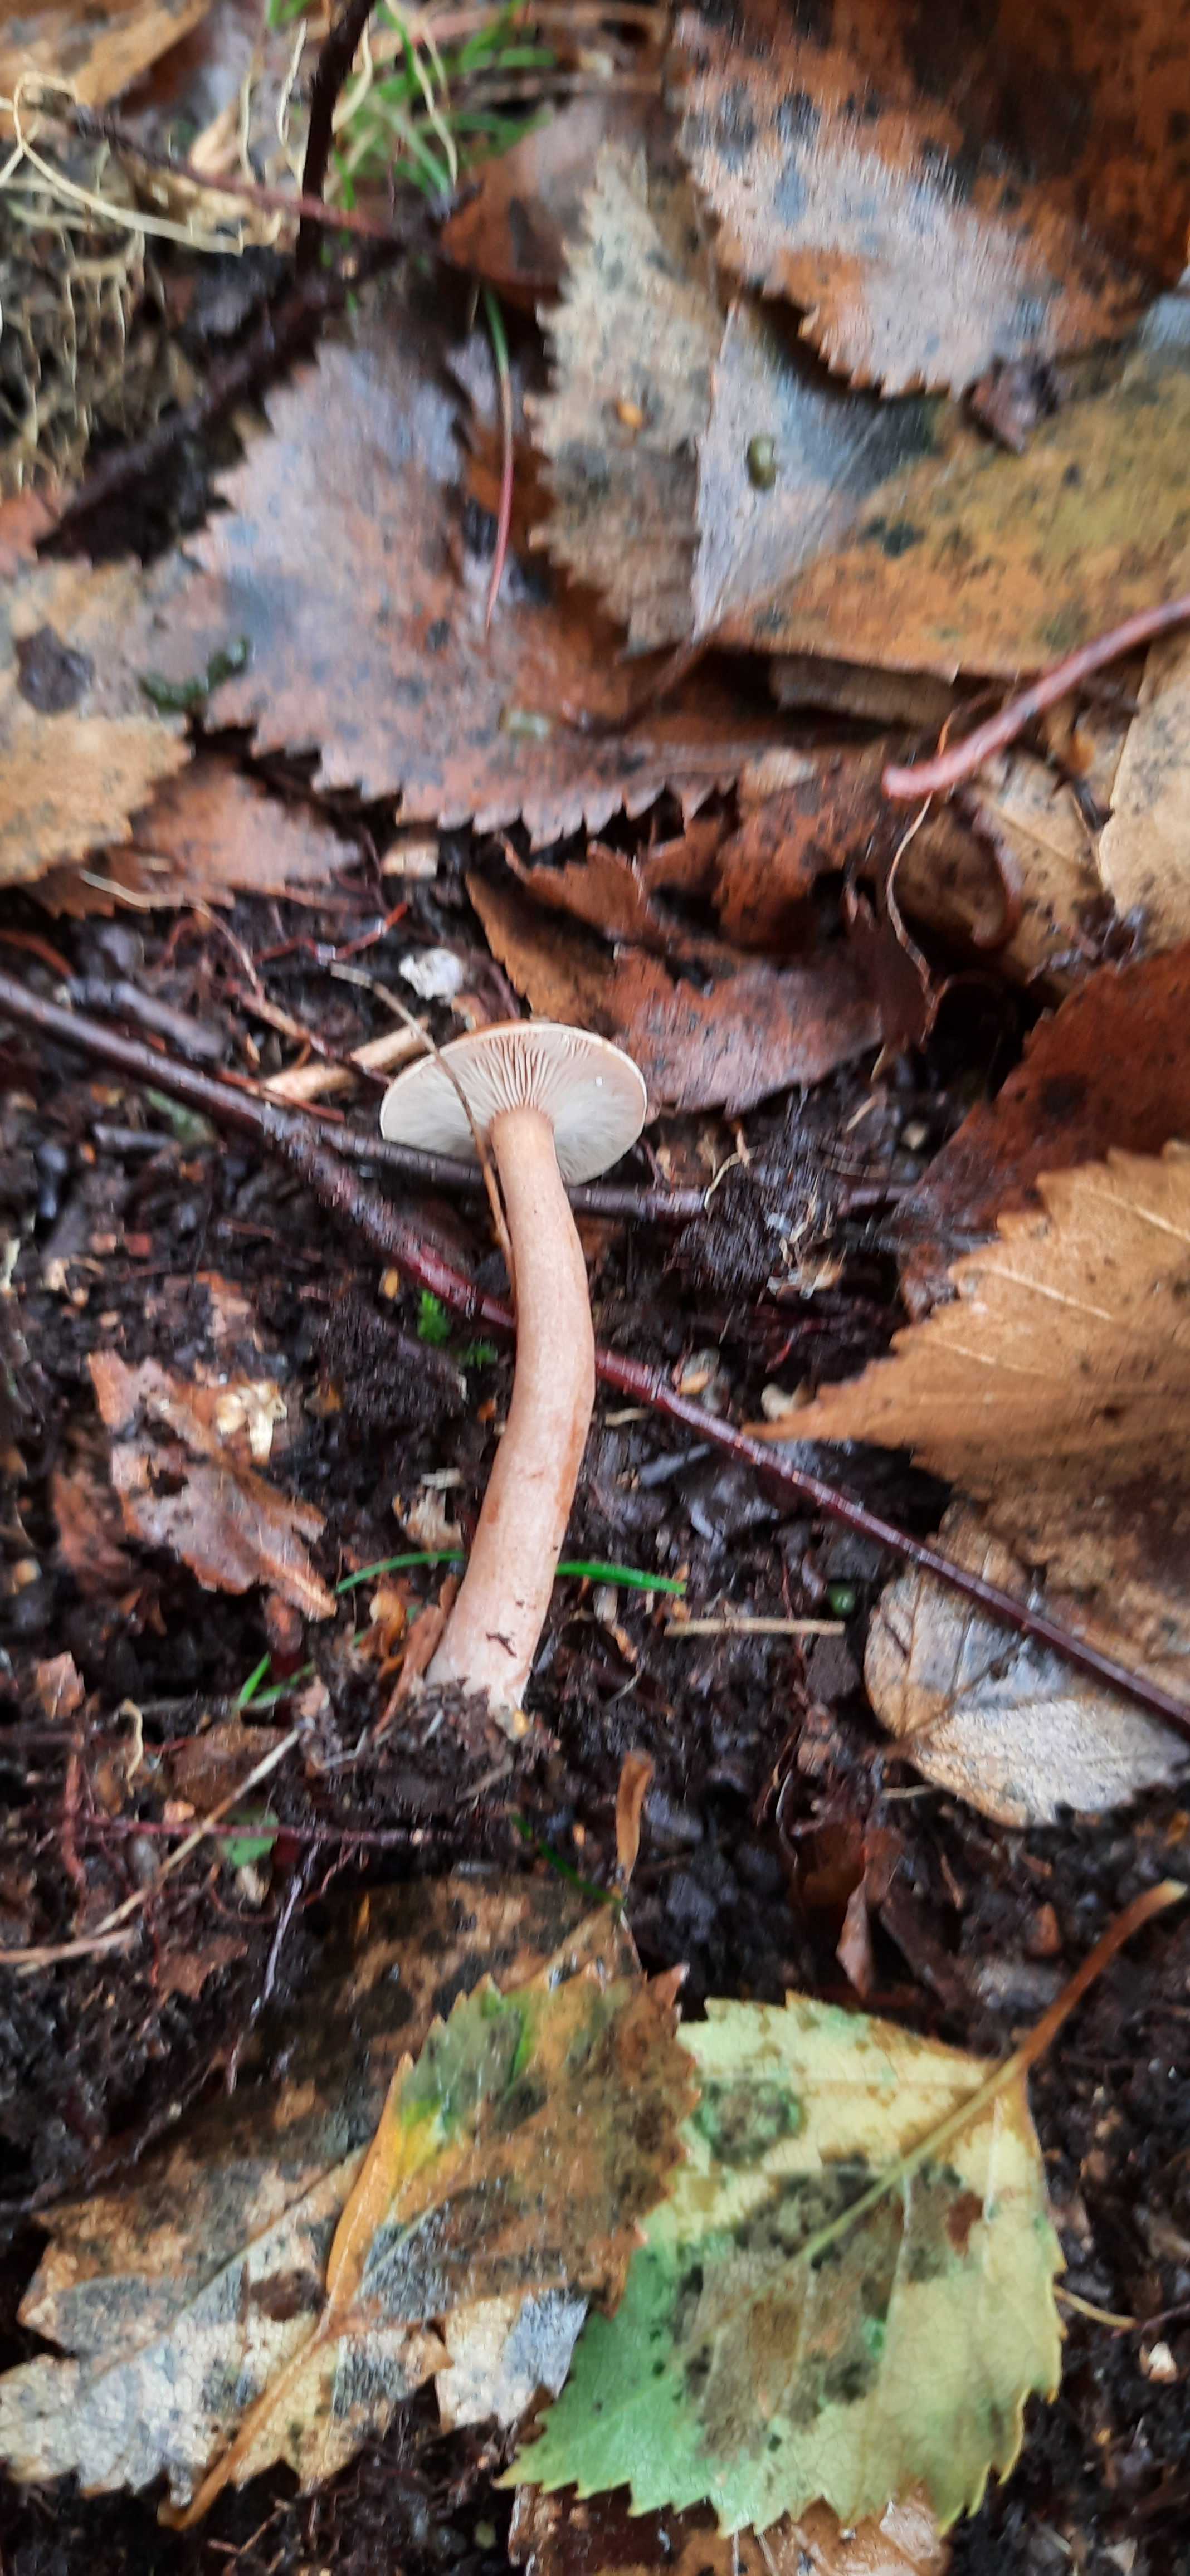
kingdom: Fungi
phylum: Basidiomycota
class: Agaricomycetes
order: Russulales
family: Russulaceae
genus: Lactarius
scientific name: Lactarius tabidus
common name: rynket mælkehat
